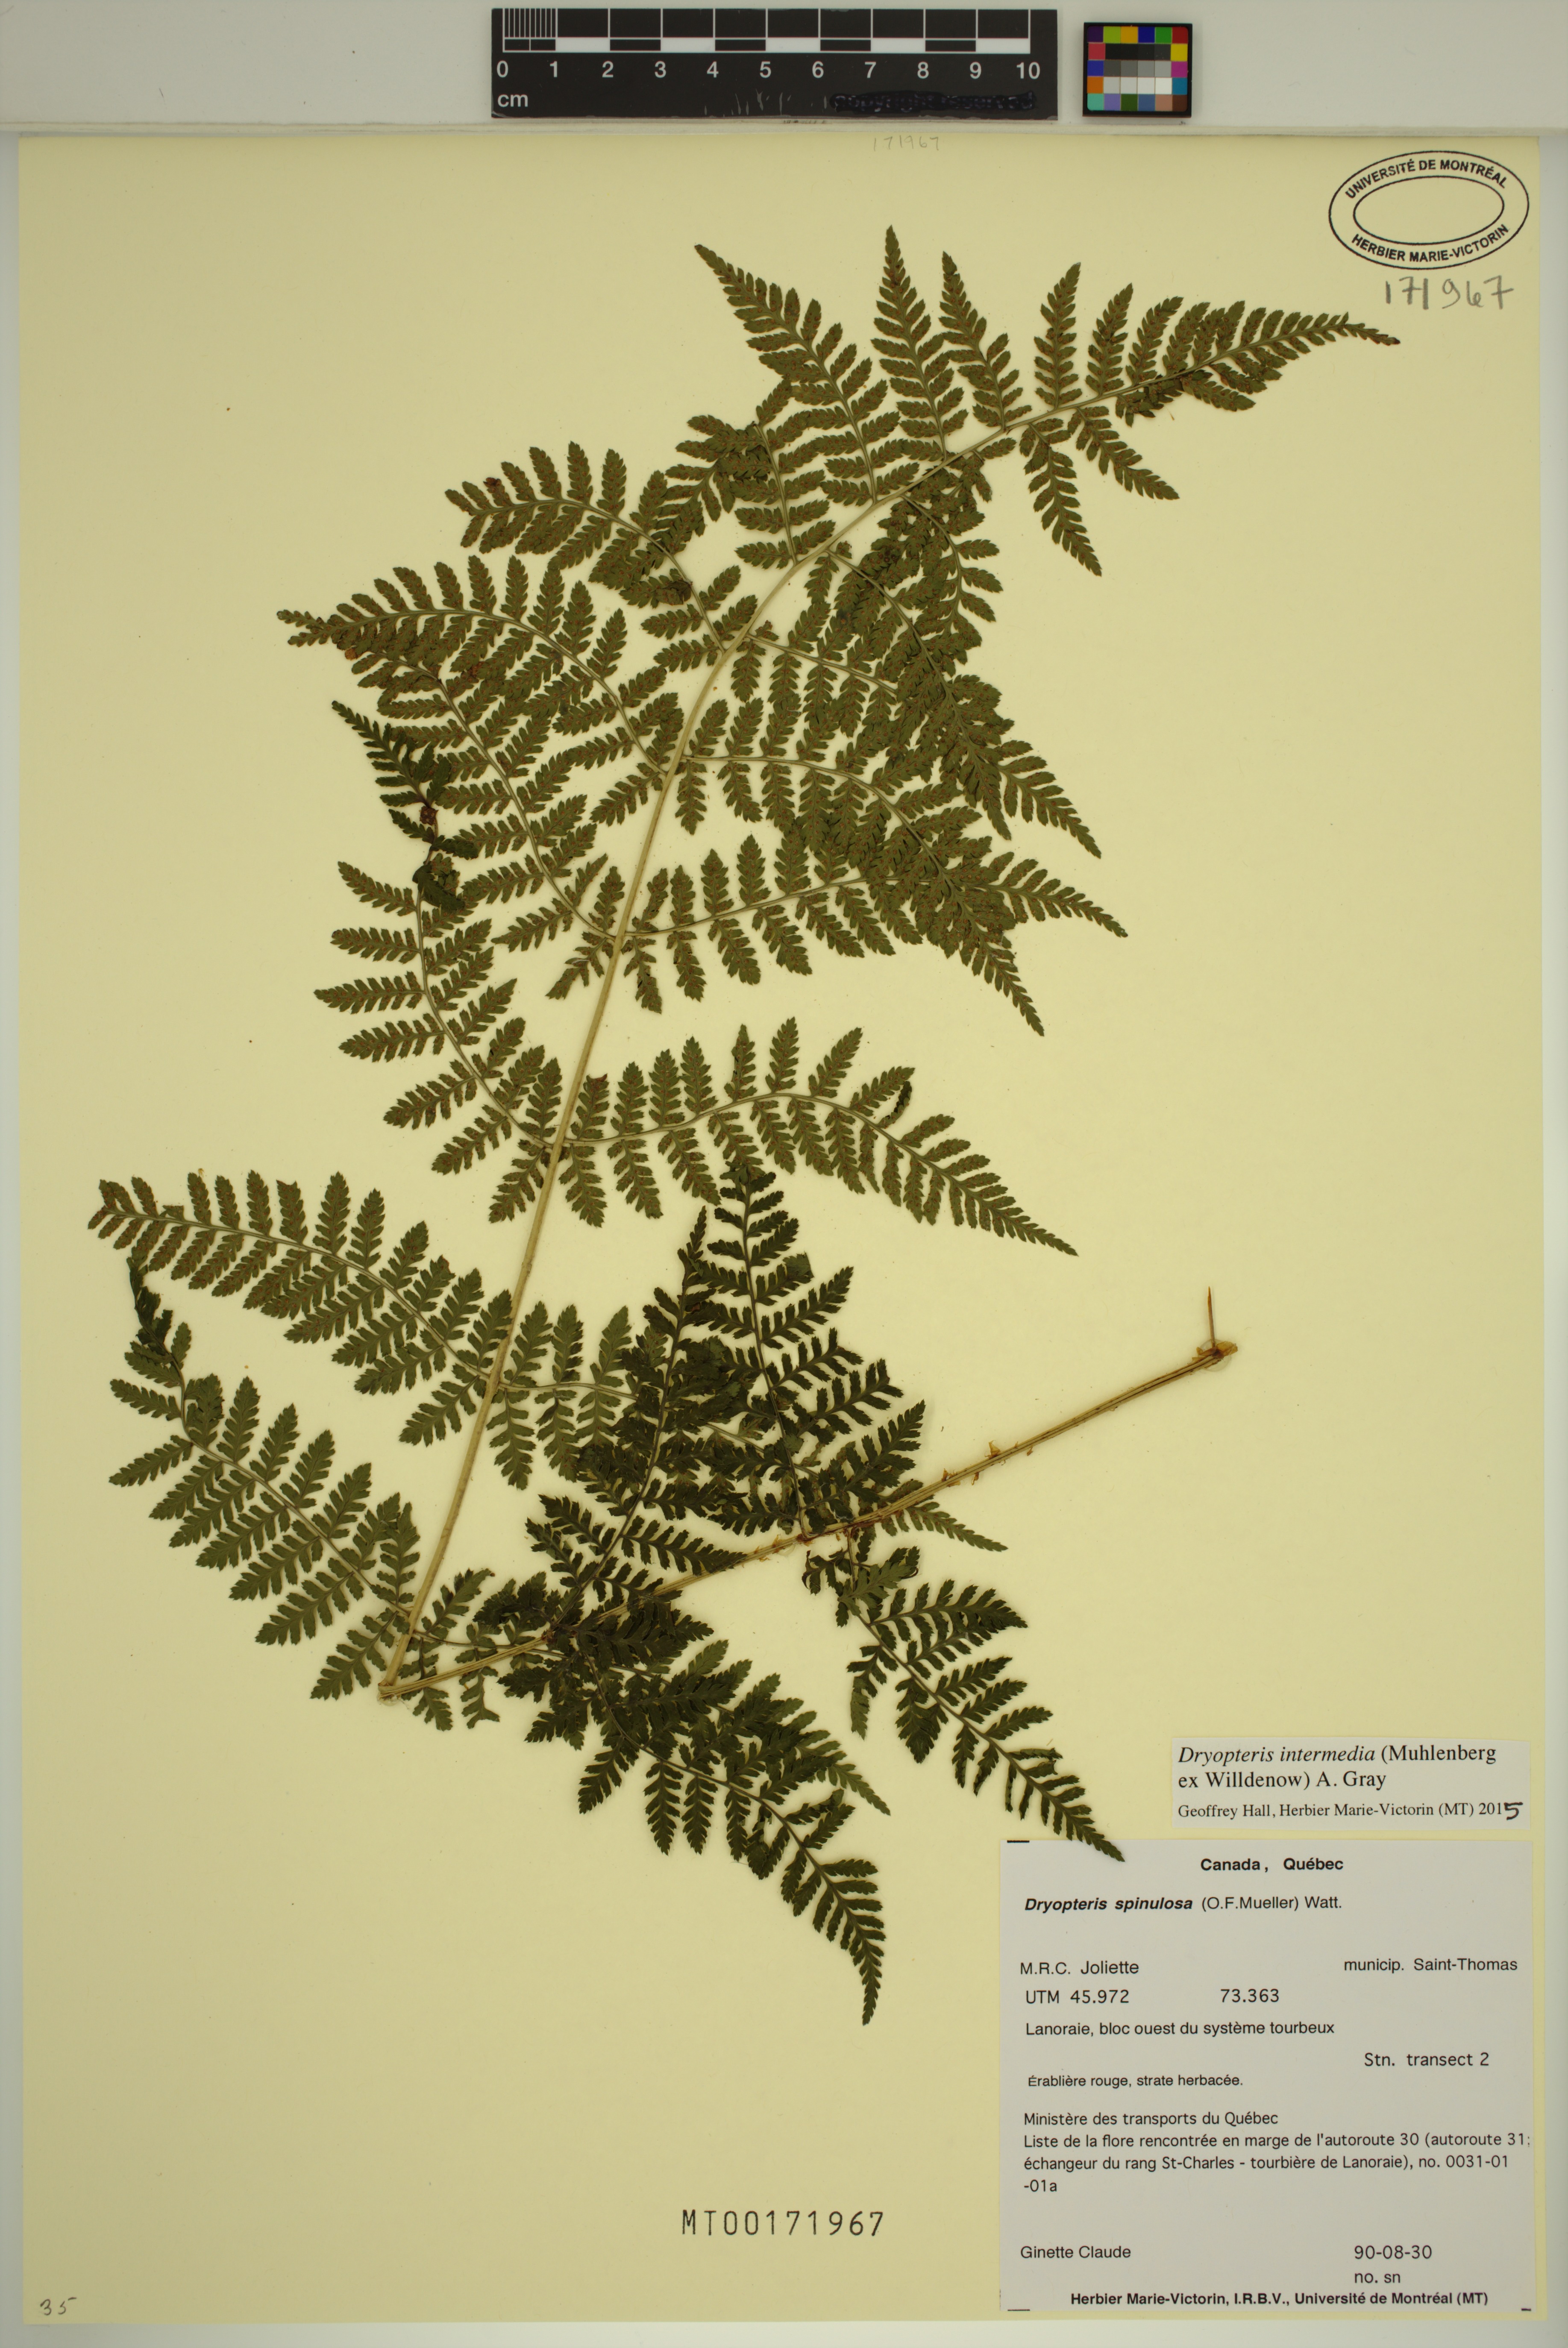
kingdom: Plantae
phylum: Tracheophyta
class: Polypodiopsida
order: Polypodiales
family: Dryopteridaceae
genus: Dryopteris
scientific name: Dryopteris intermedia
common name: Evergreen wood fern
